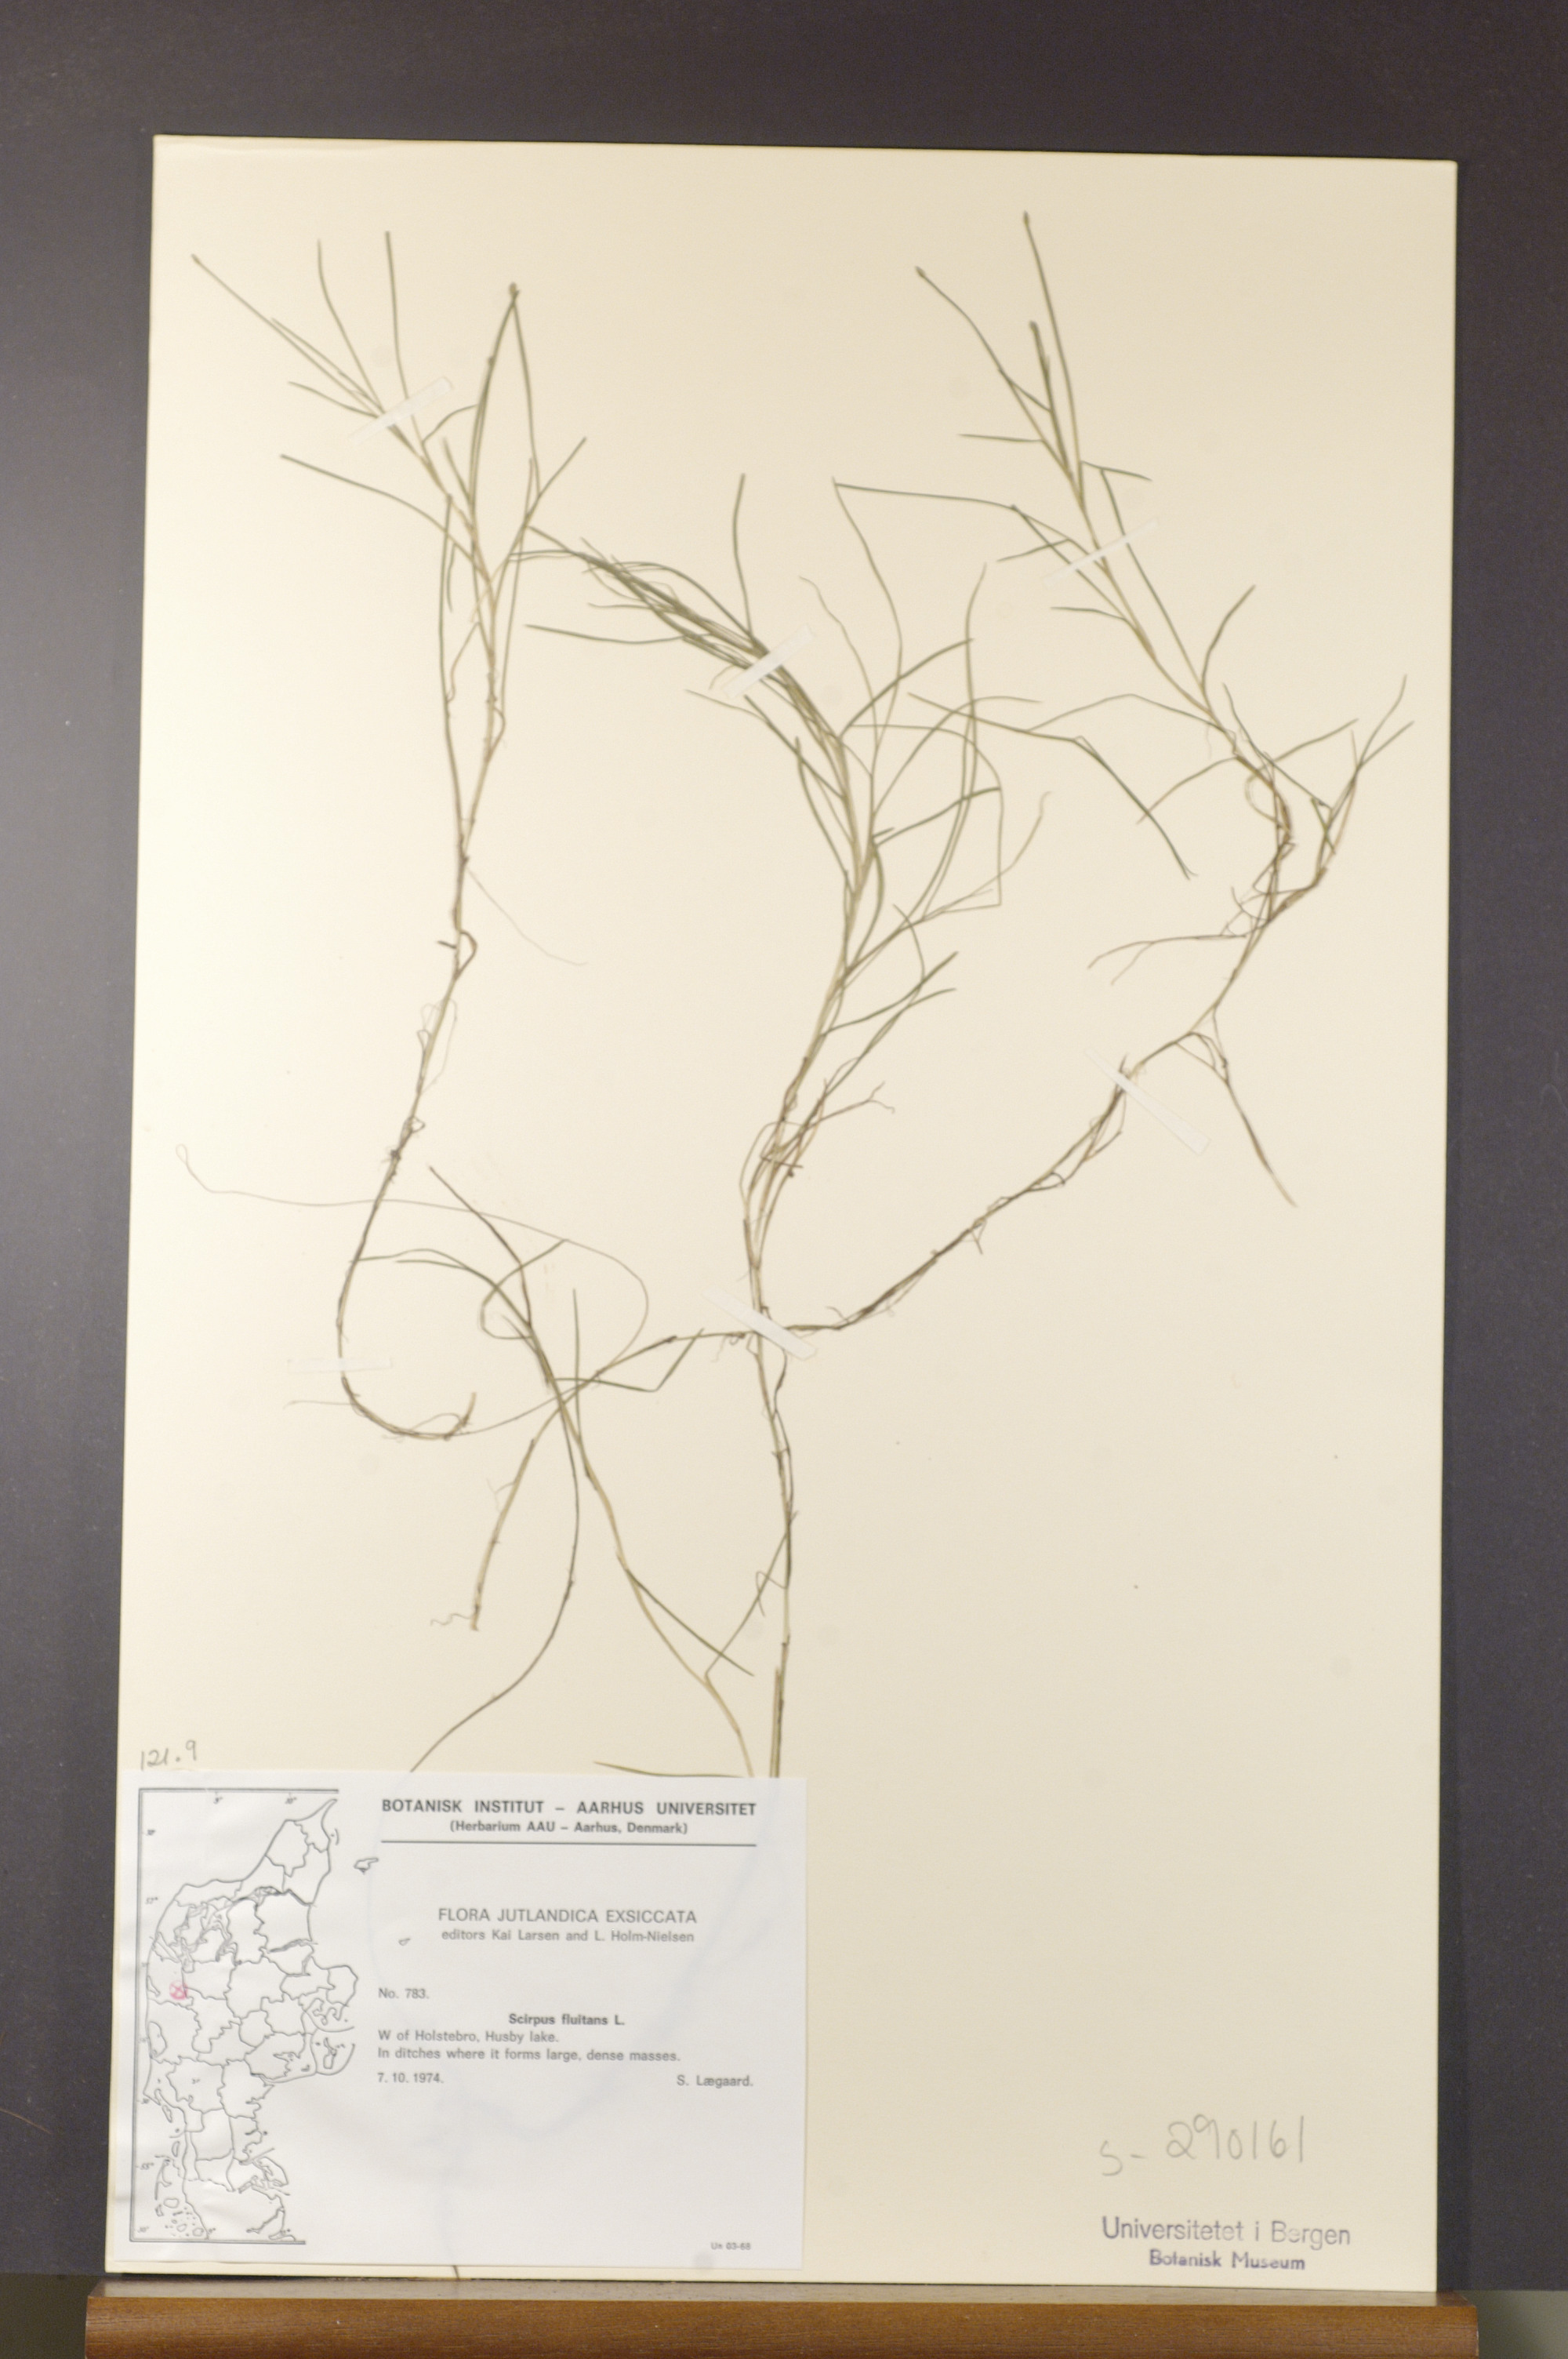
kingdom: Plantae
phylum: Tracheophyta
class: Liliopsida
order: Poales
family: Cyperaceae
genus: Isolepis
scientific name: Isolepis fluitans
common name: Floating club-rush
